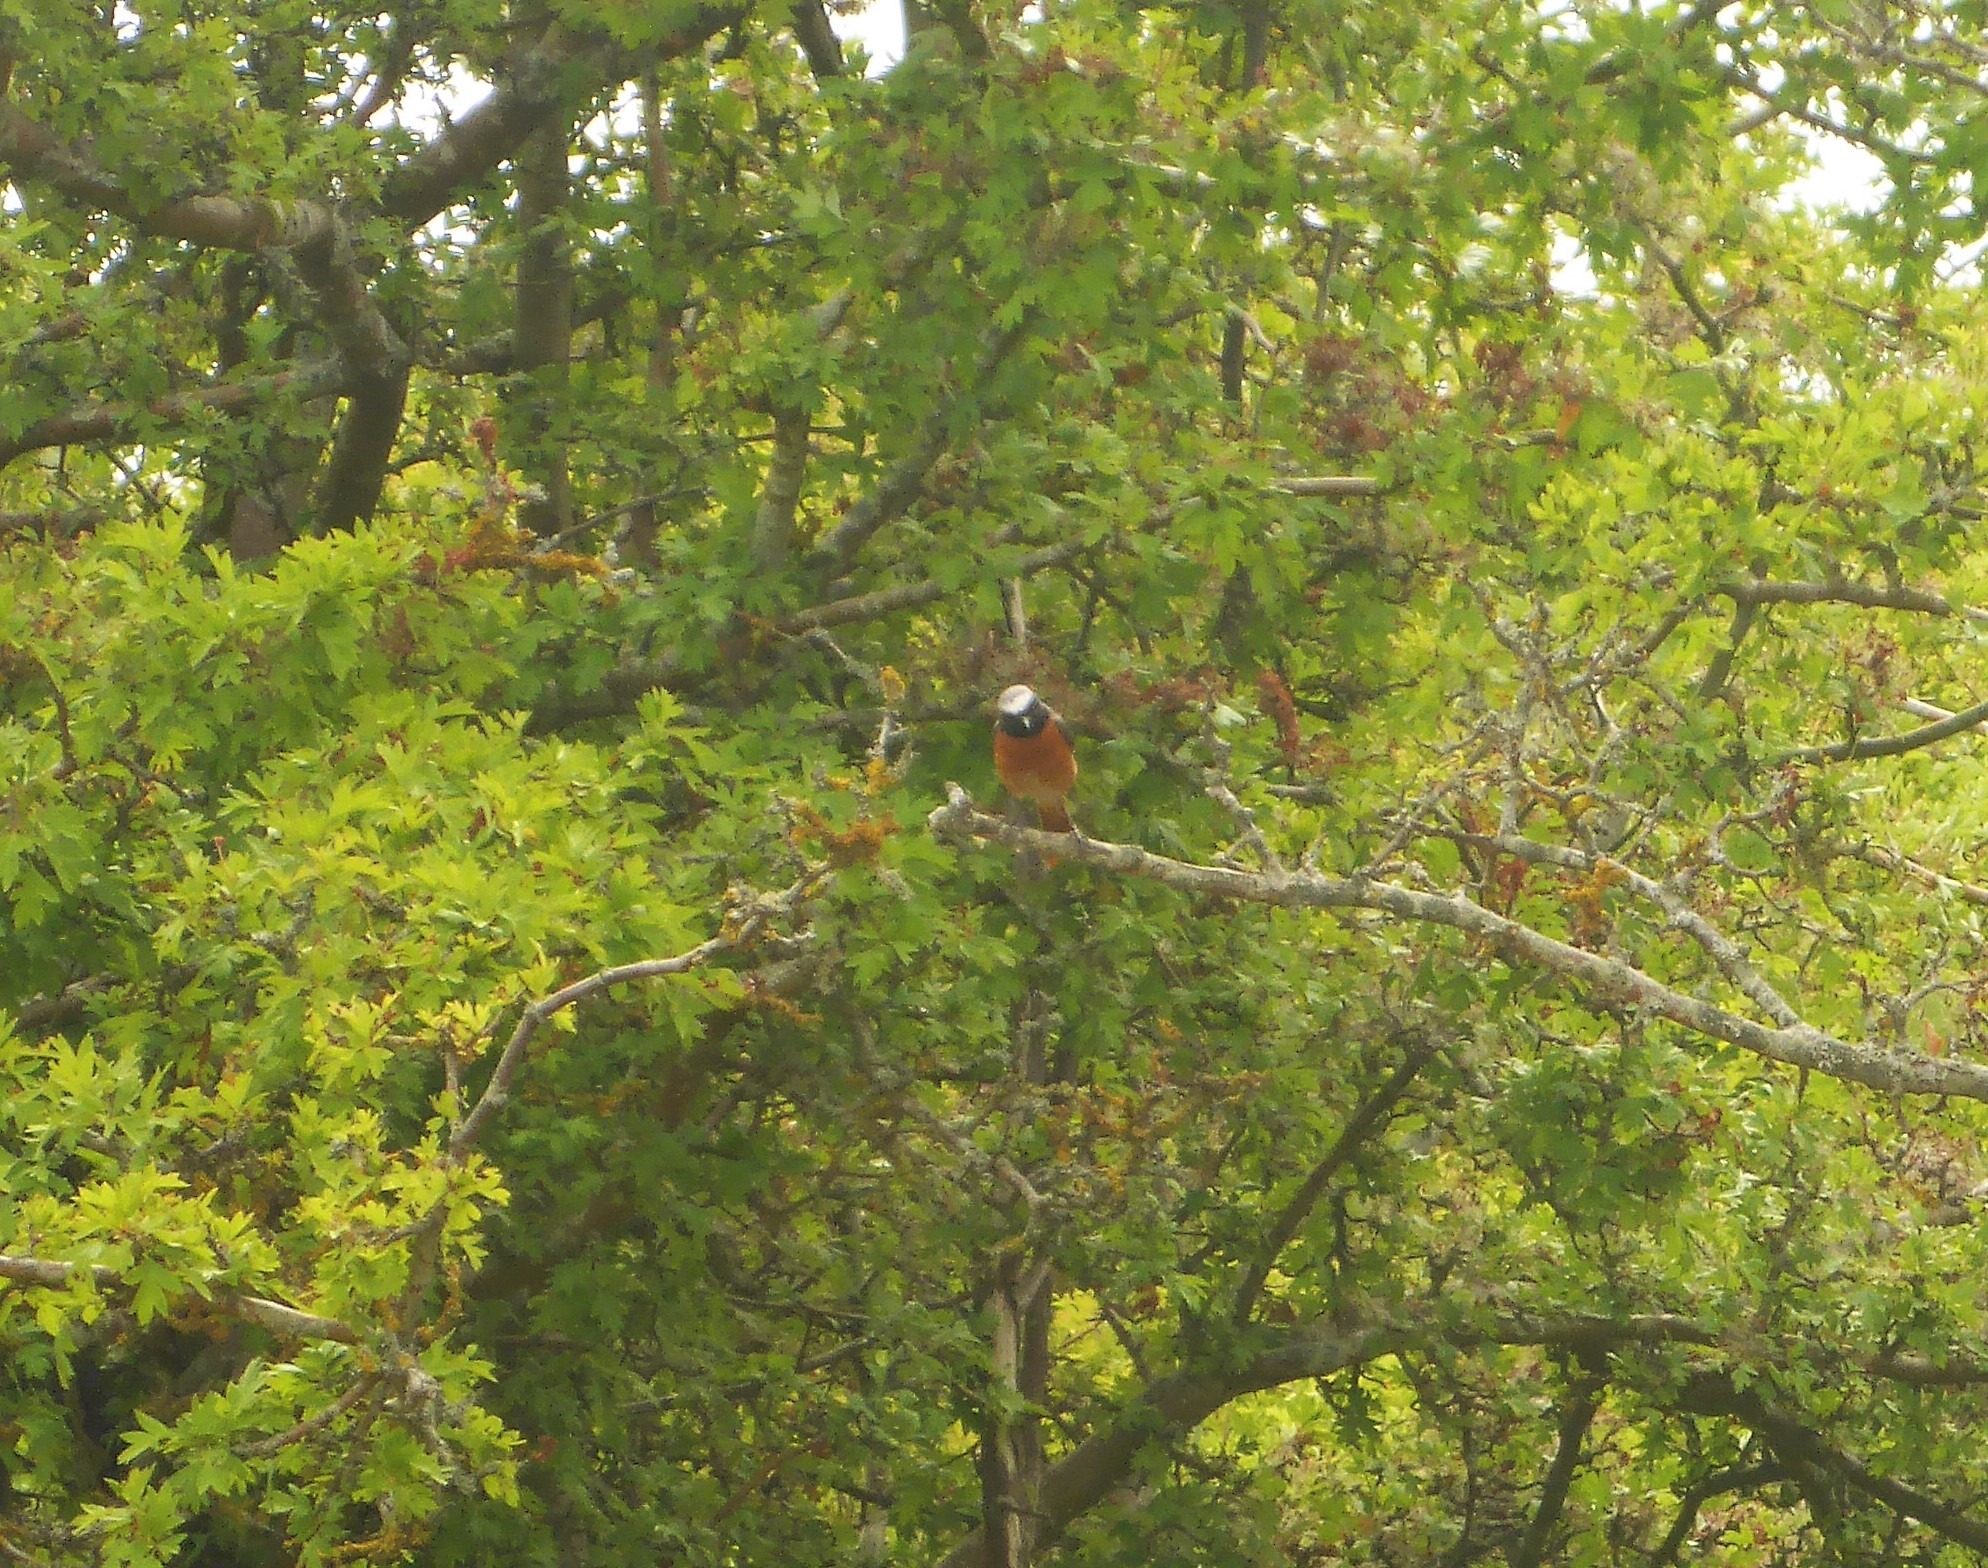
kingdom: Animalia
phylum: Chordata
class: Aves
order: Passeriformes
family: Muscicapidae
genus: Phoenicurus
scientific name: Phoenicurus phoenicurus
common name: Rødstjert
